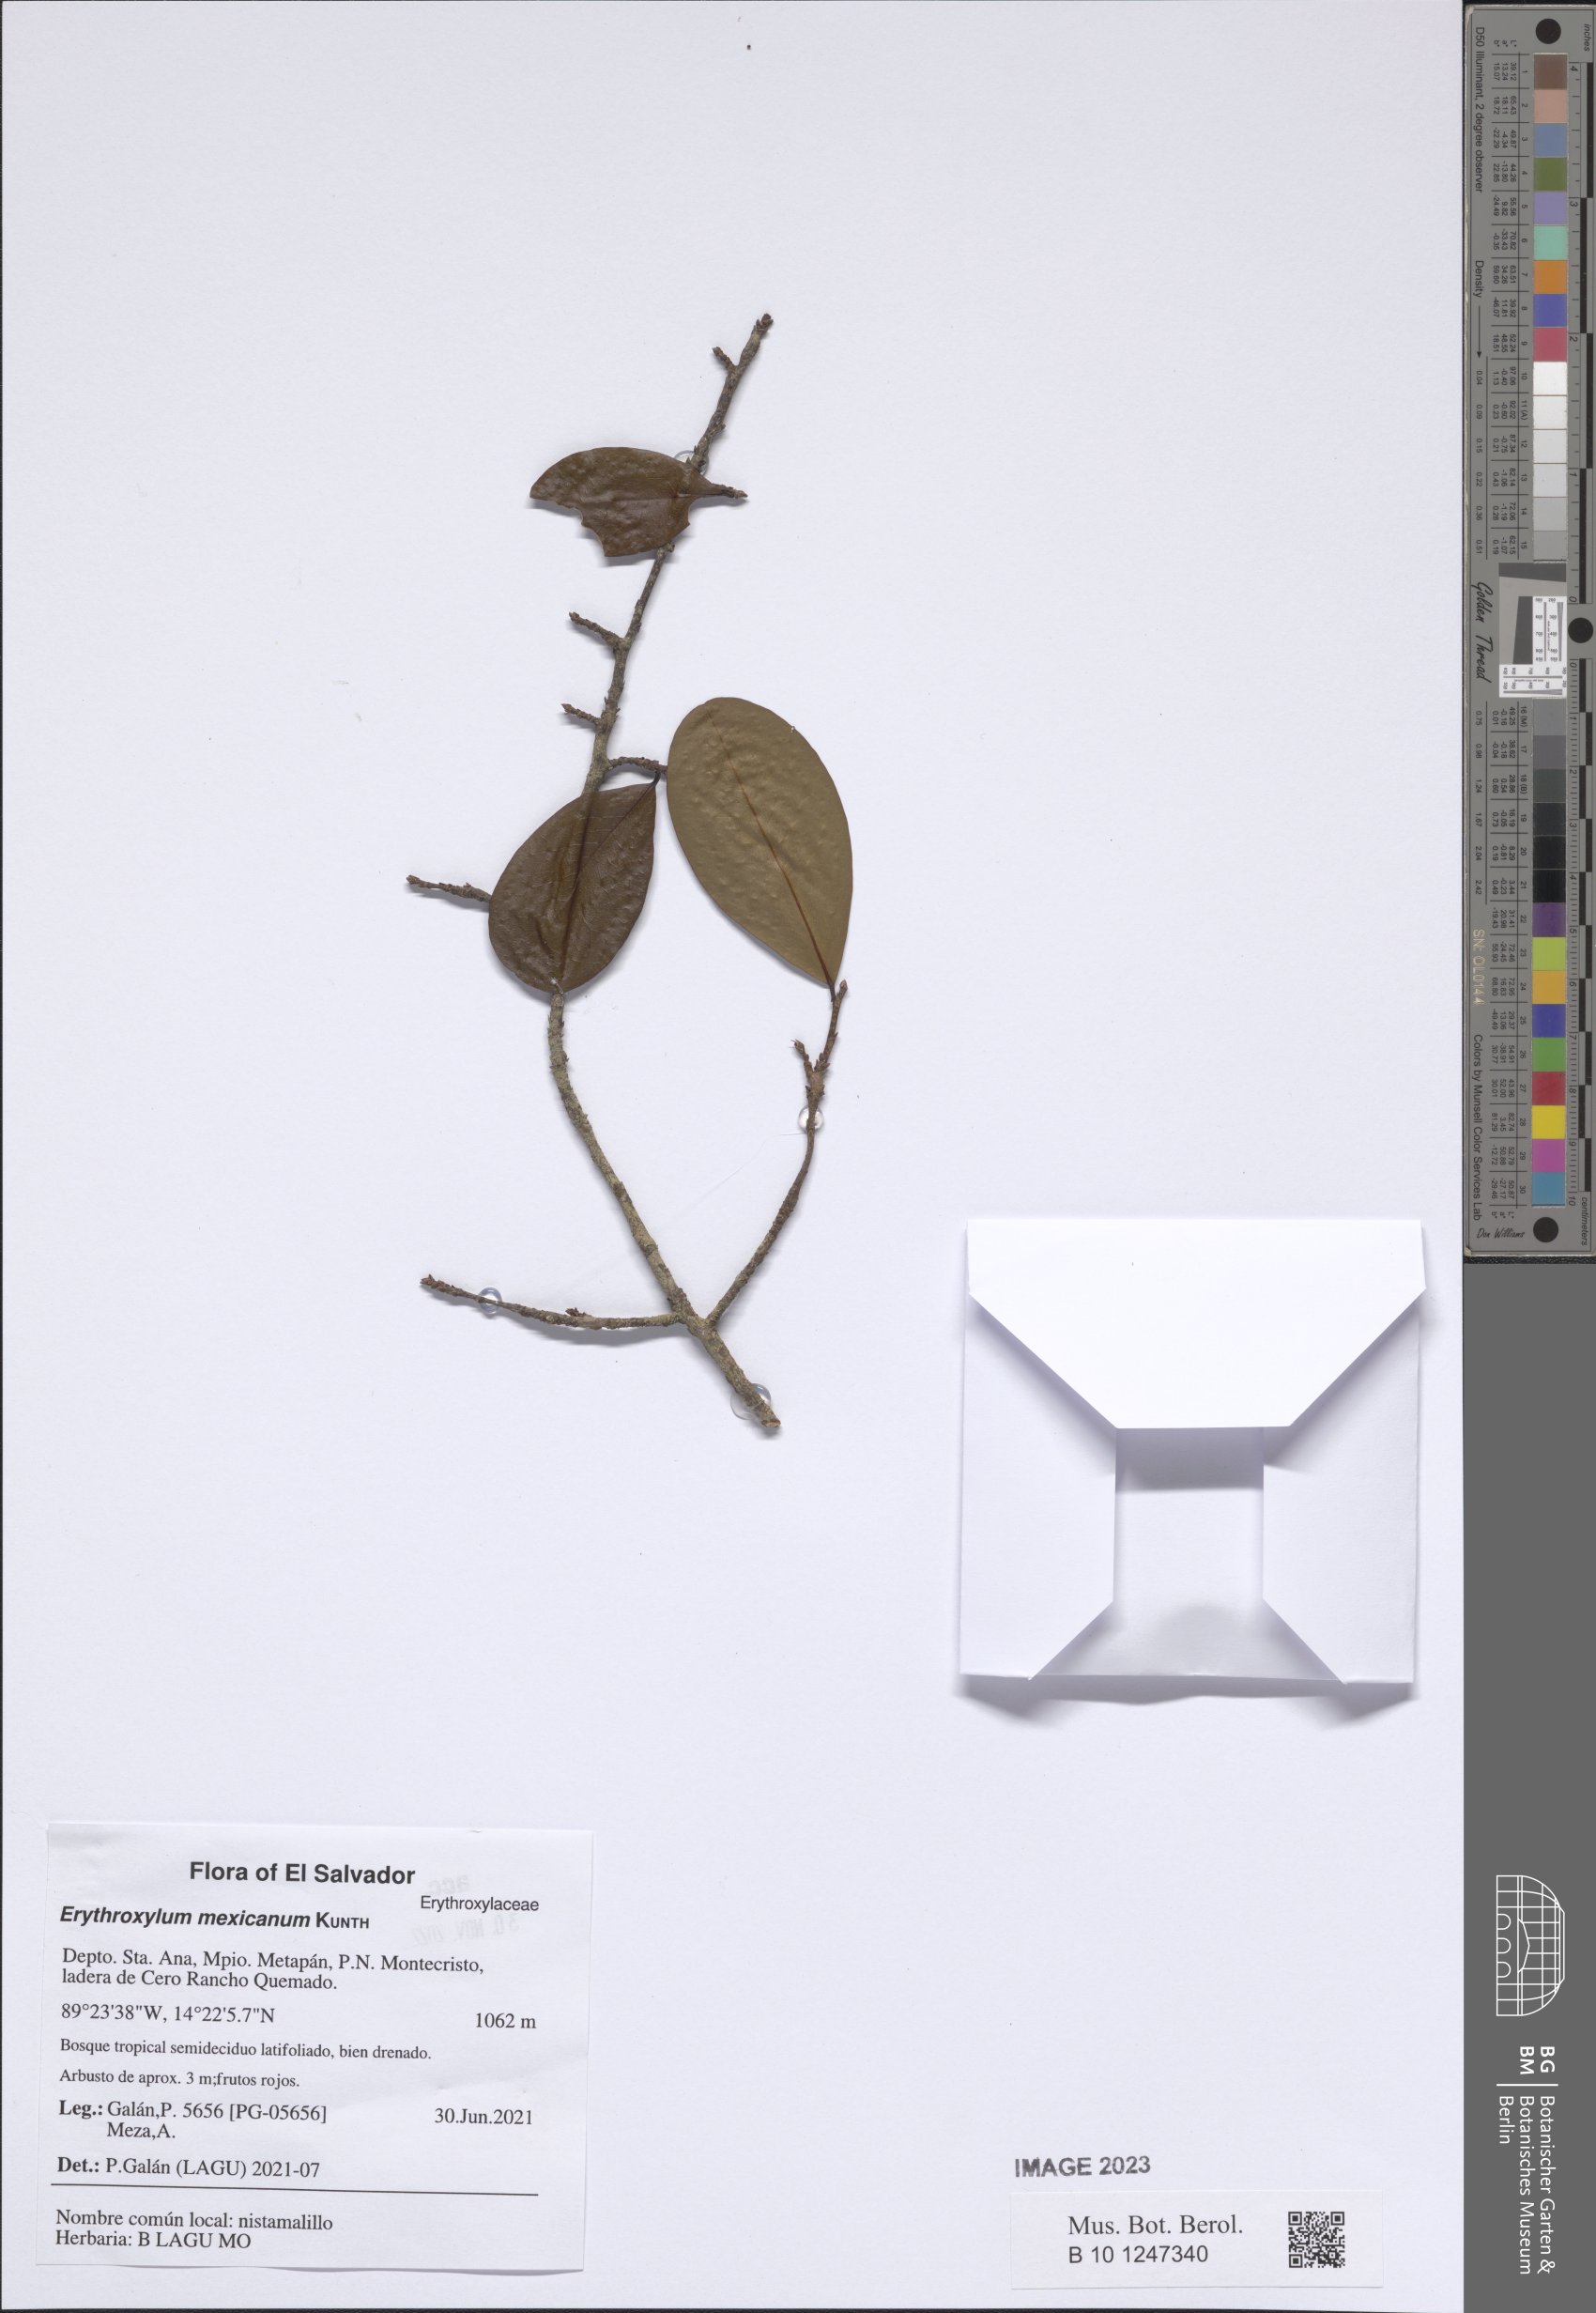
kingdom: Plantae
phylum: Tracheophyta
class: Magnoliopsida
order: Malpighiales
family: Erythroxylaceae
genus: Erythroxylum
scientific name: Erythroxylum mexicanum
